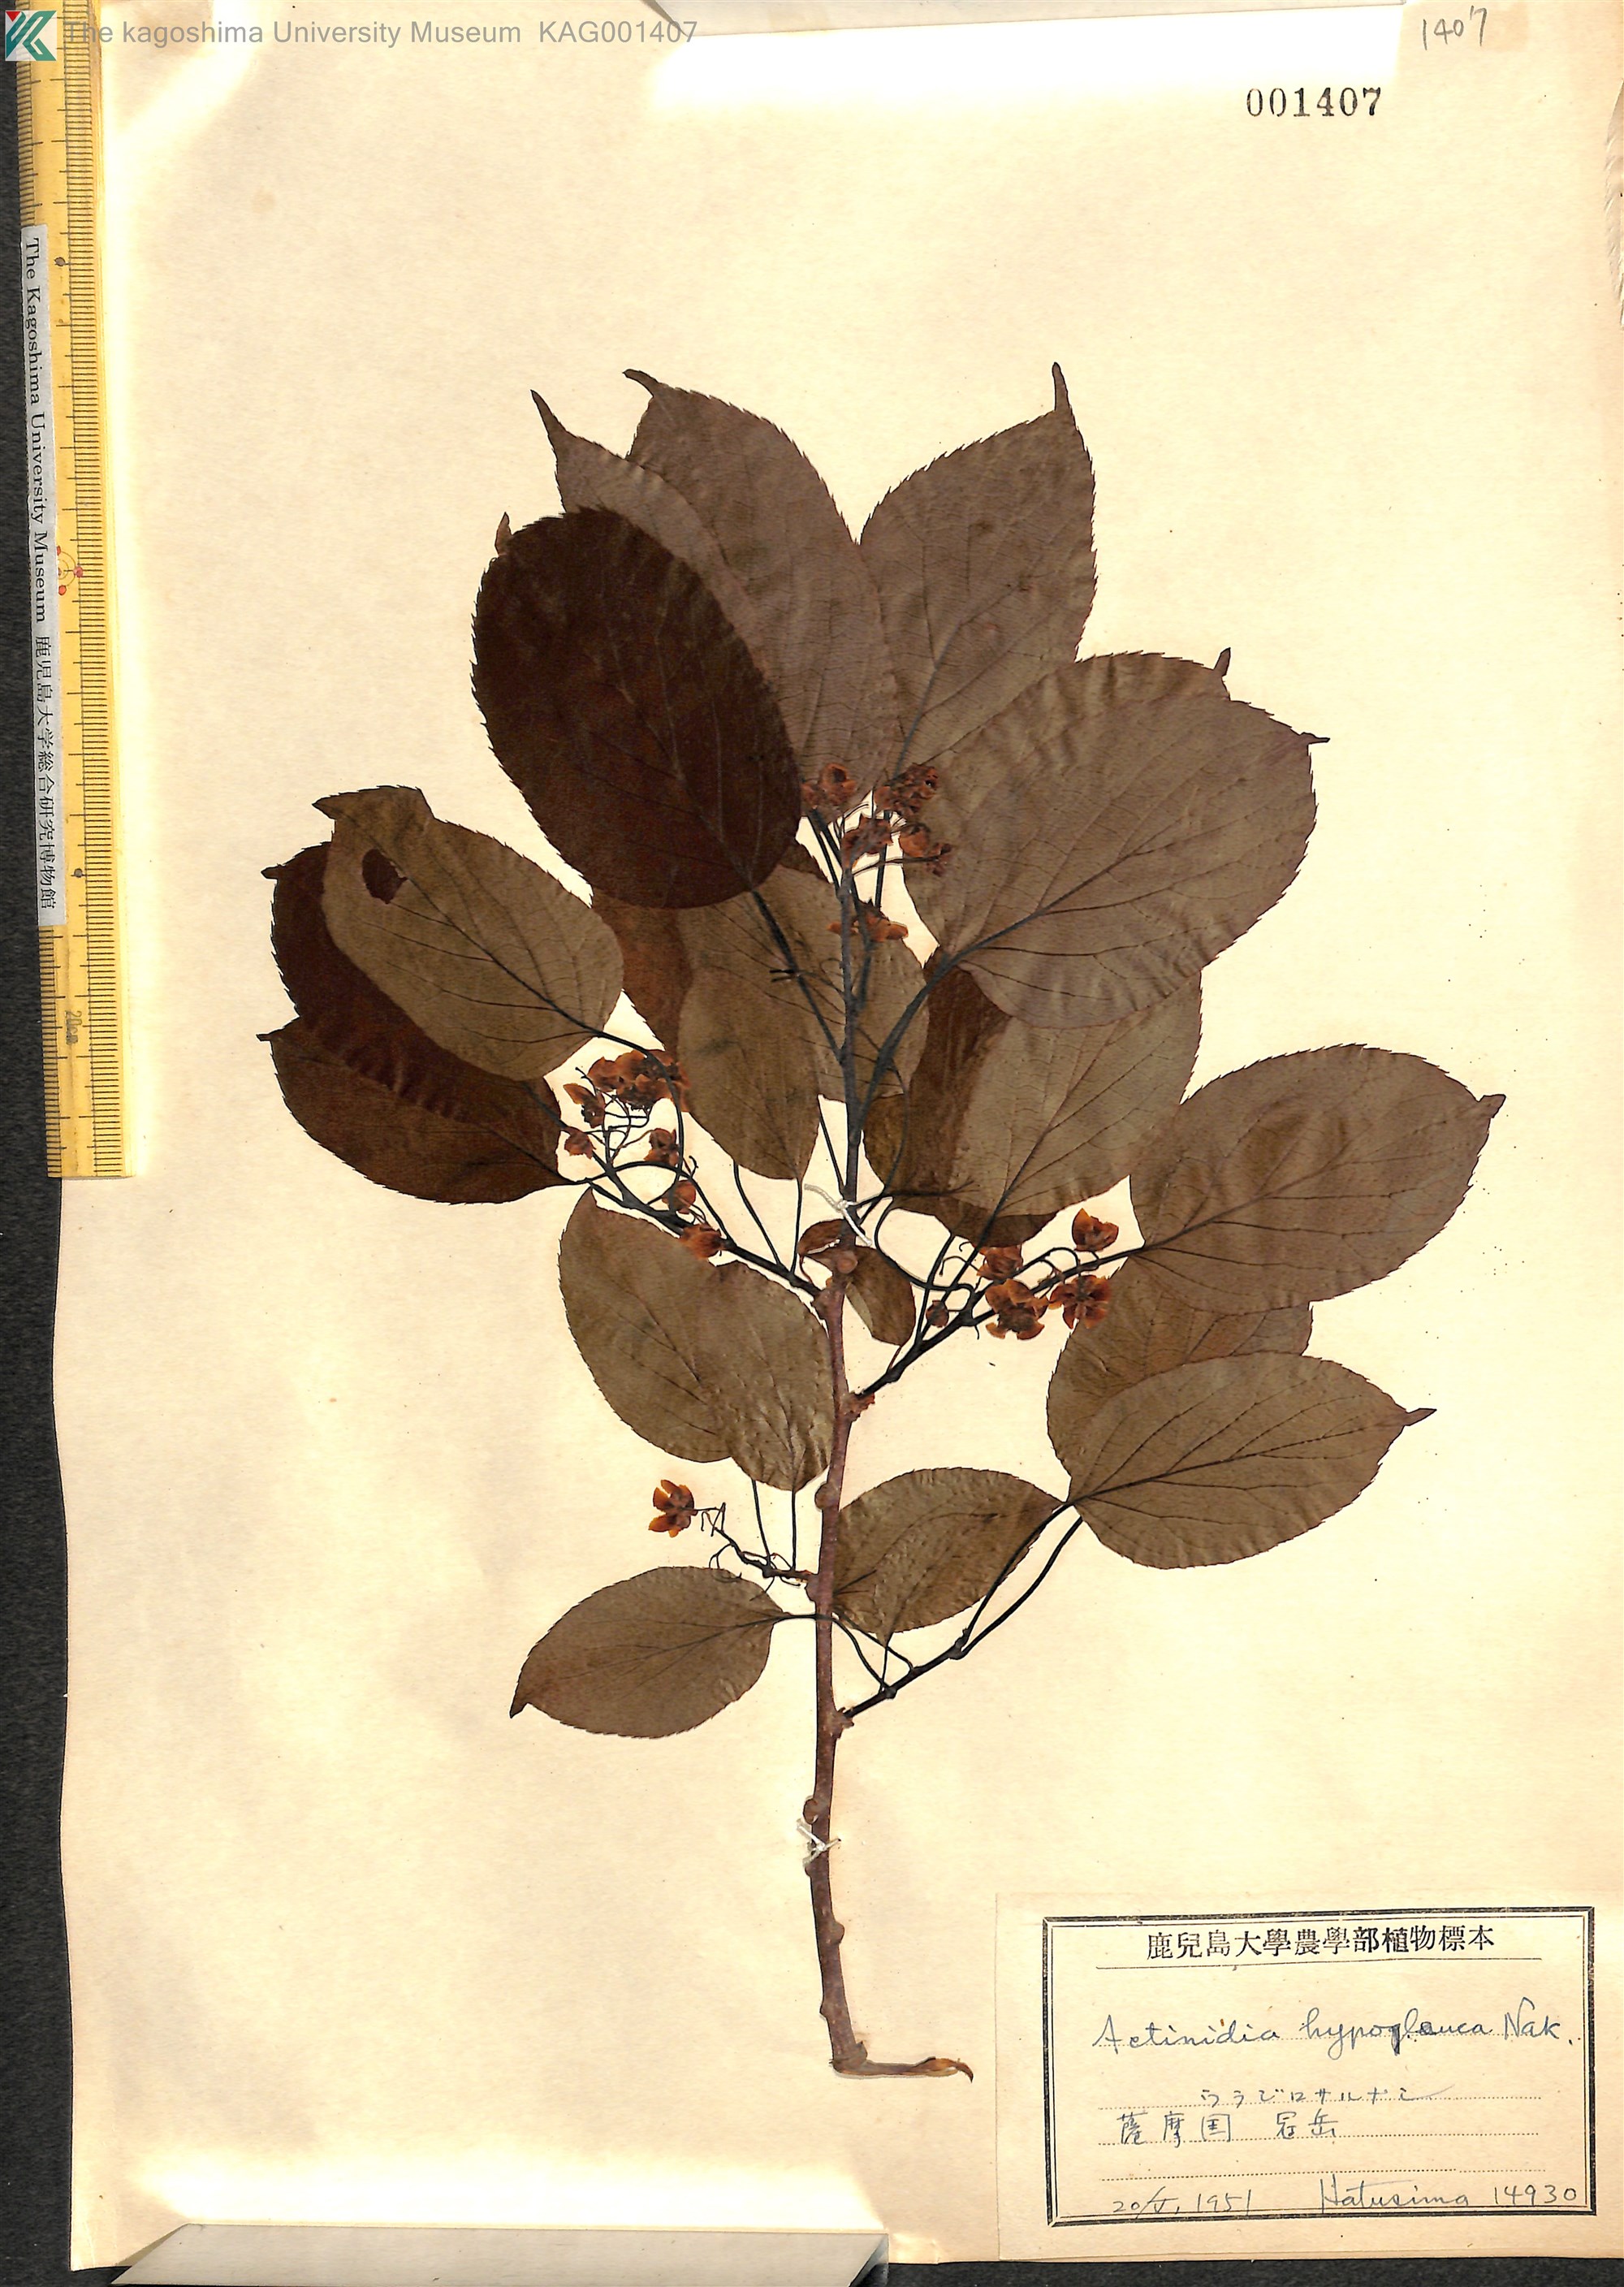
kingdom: Plantae
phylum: Tracheophyta
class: Magnoliopsida
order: Ericales
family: Actinidiaceae
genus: Actinidia
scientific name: Actinidia arguta
